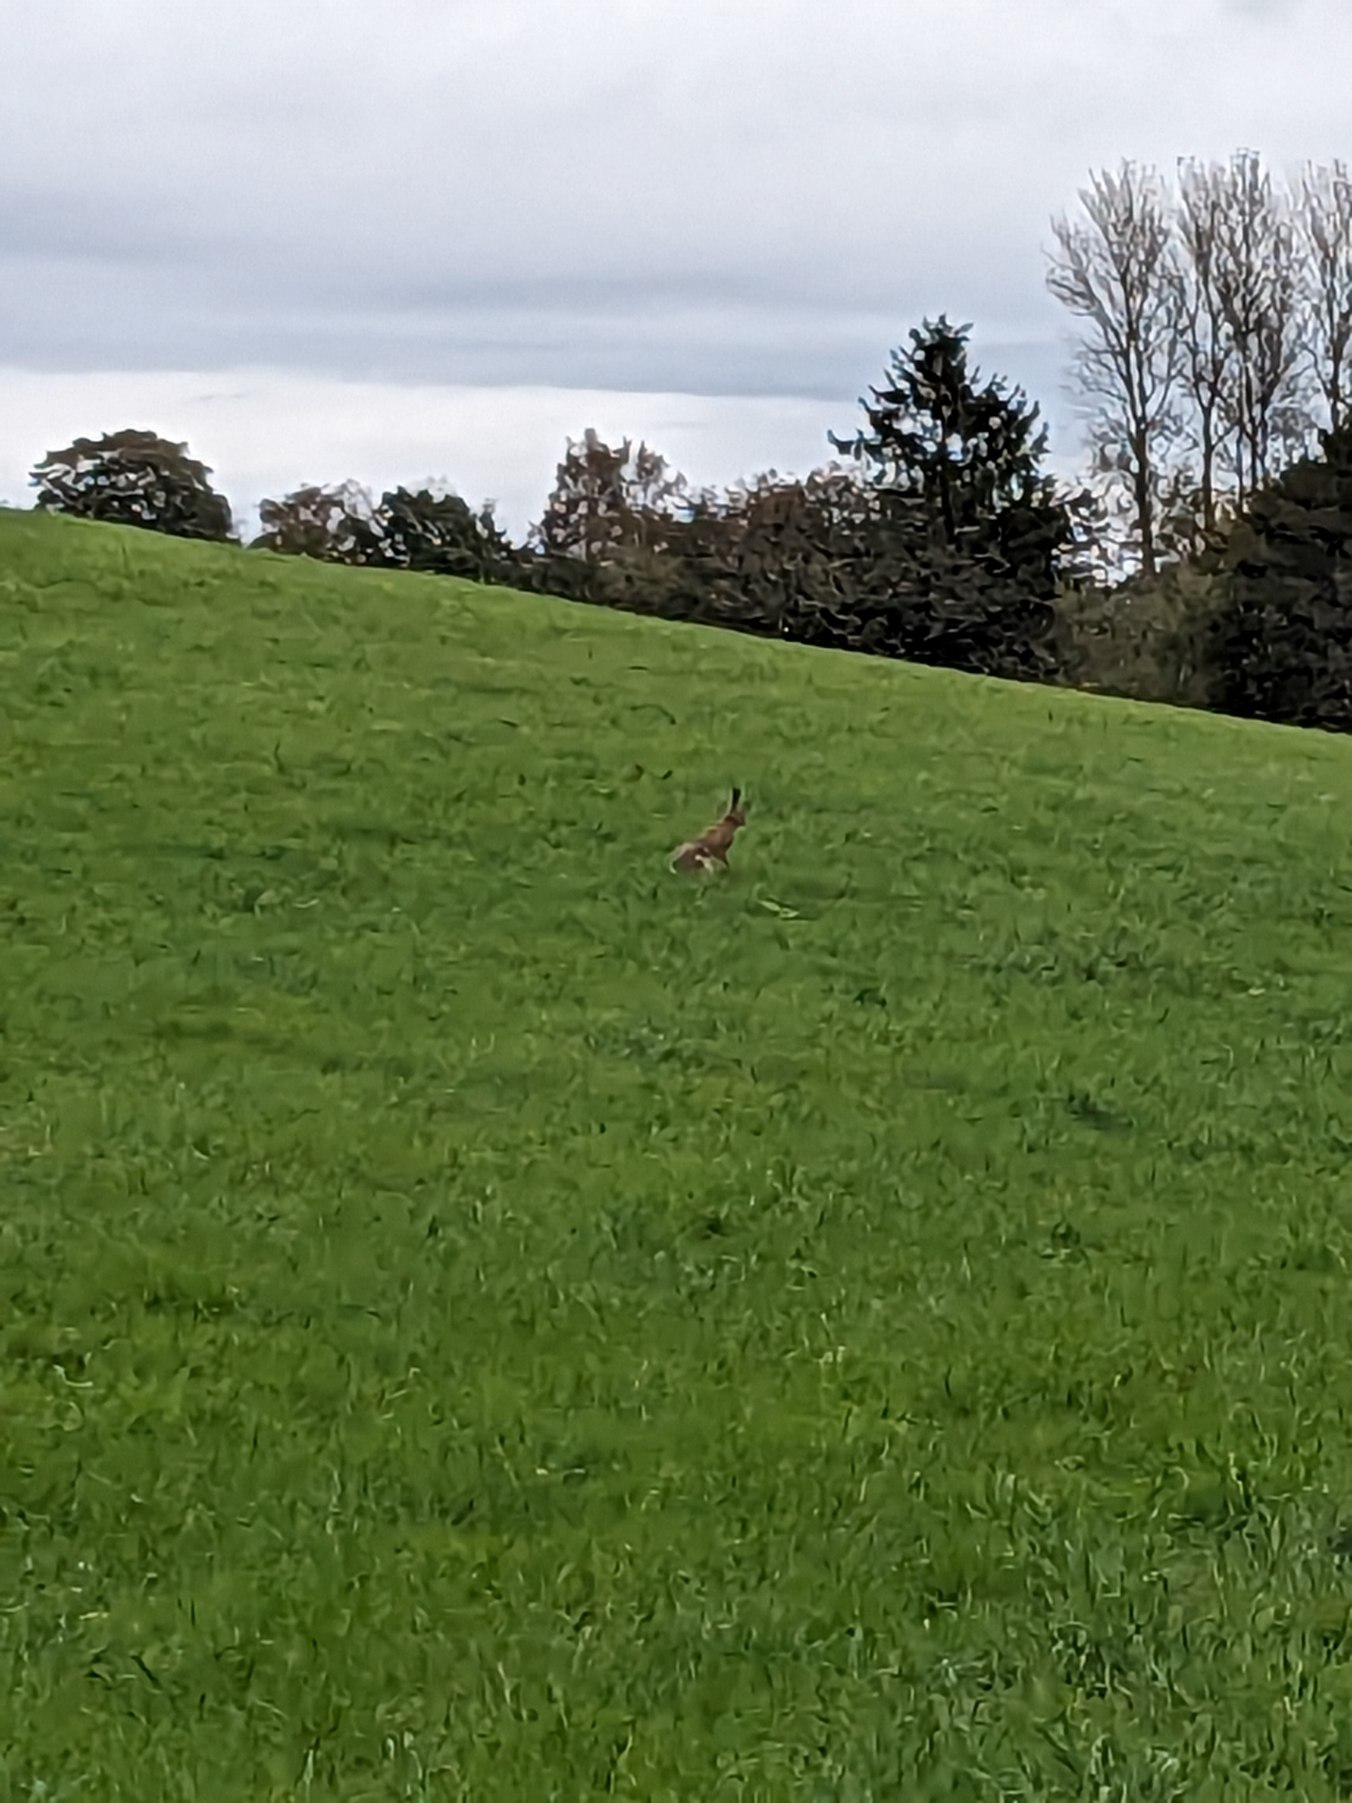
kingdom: Animalia
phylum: Chordata
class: Mammalia
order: Lagomorpha
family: Leporidae
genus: Lepus
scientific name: Lepus europaeus
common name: Hare
